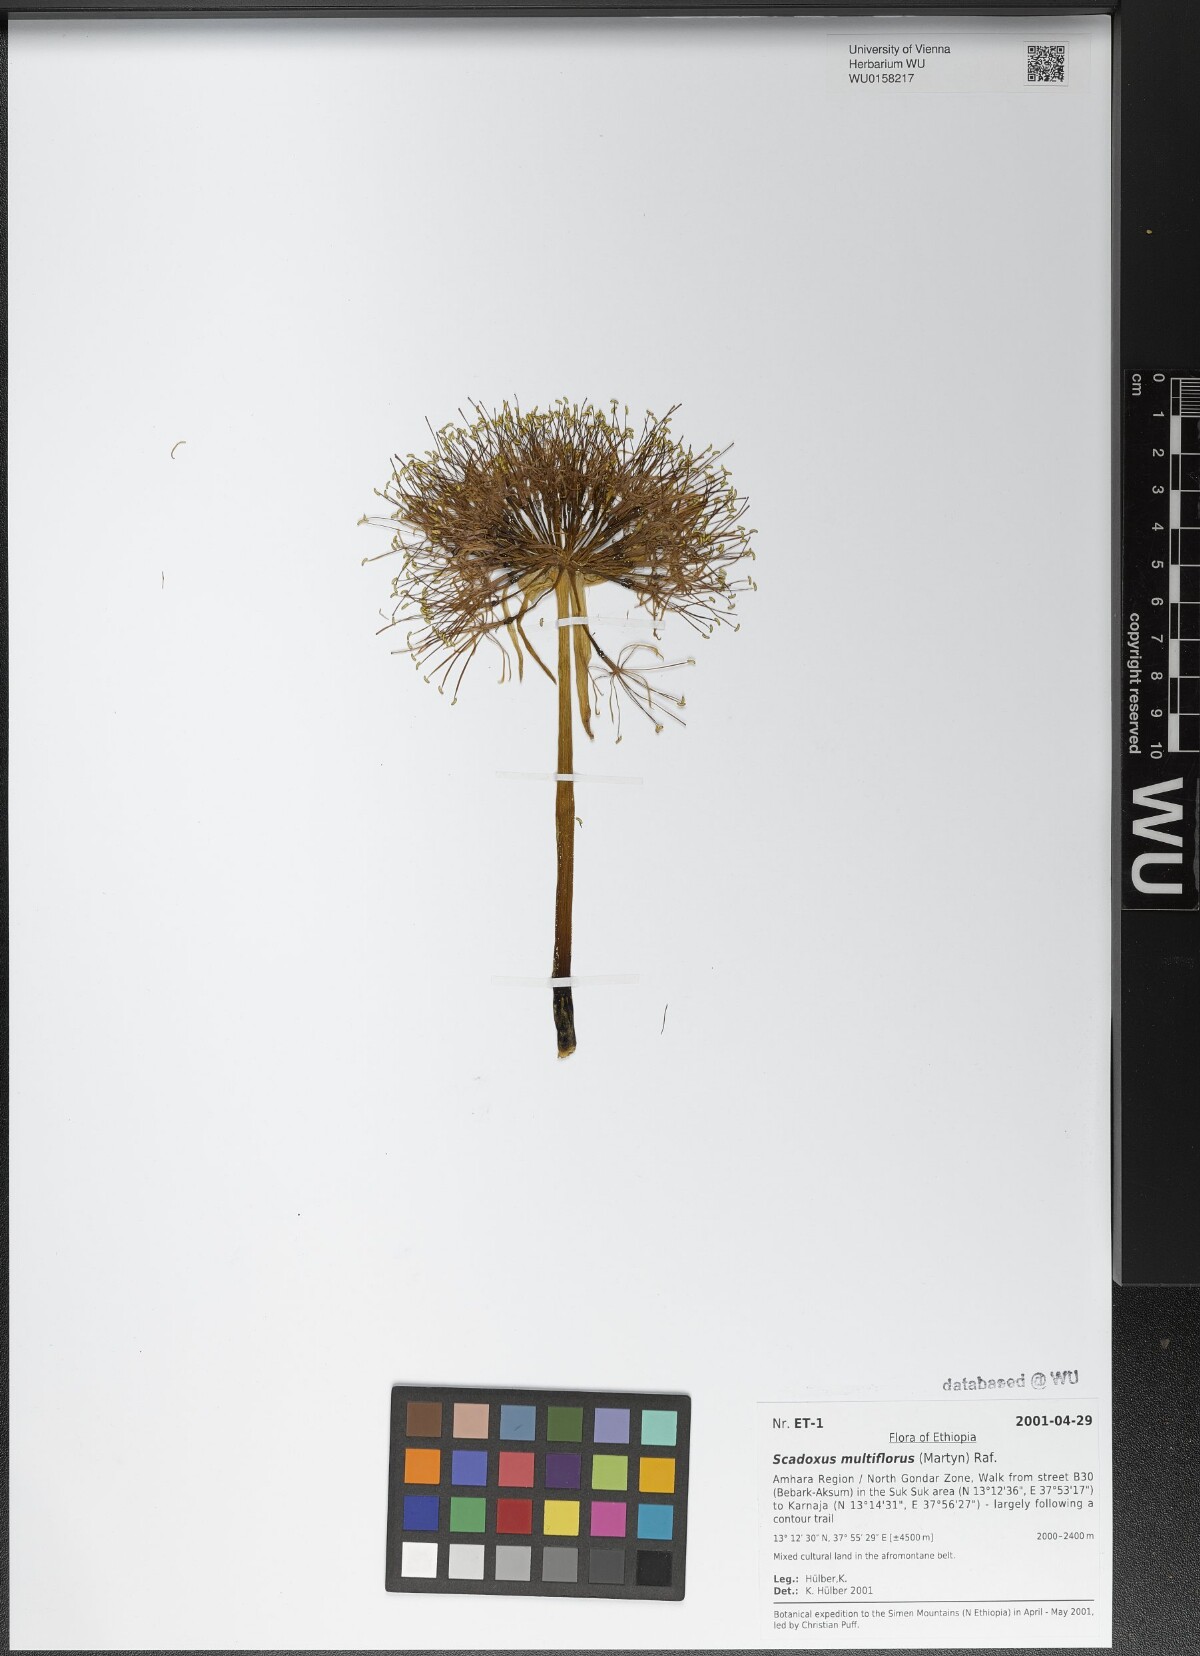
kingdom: Plantae
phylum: Tracheophyta
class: Liliopsida
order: Asparagales
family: Amaryllidaceae
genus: Scadoxus
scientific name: Scadoxus multiflorus
